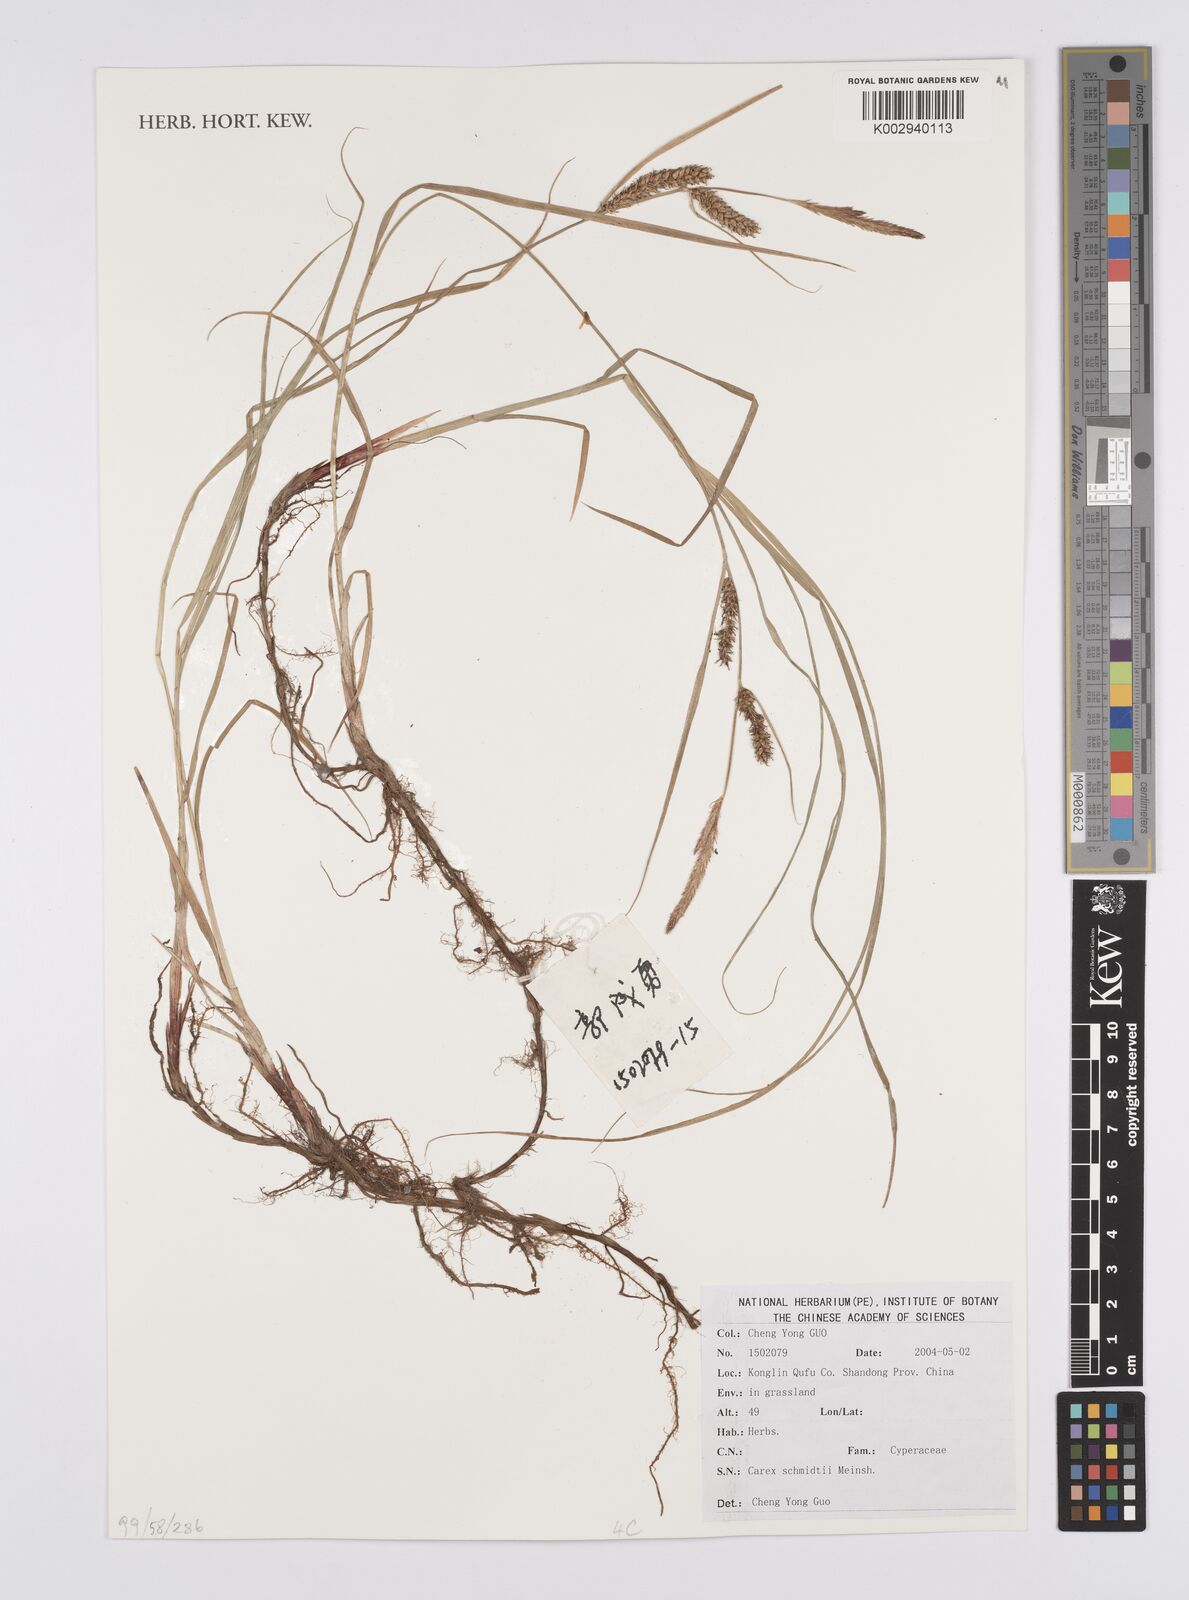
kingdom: Plantae
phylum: Tracheophyta
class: Liliopsida
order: Poales
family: Cyperaceae
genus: Carex
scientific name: Carex schmidtii
